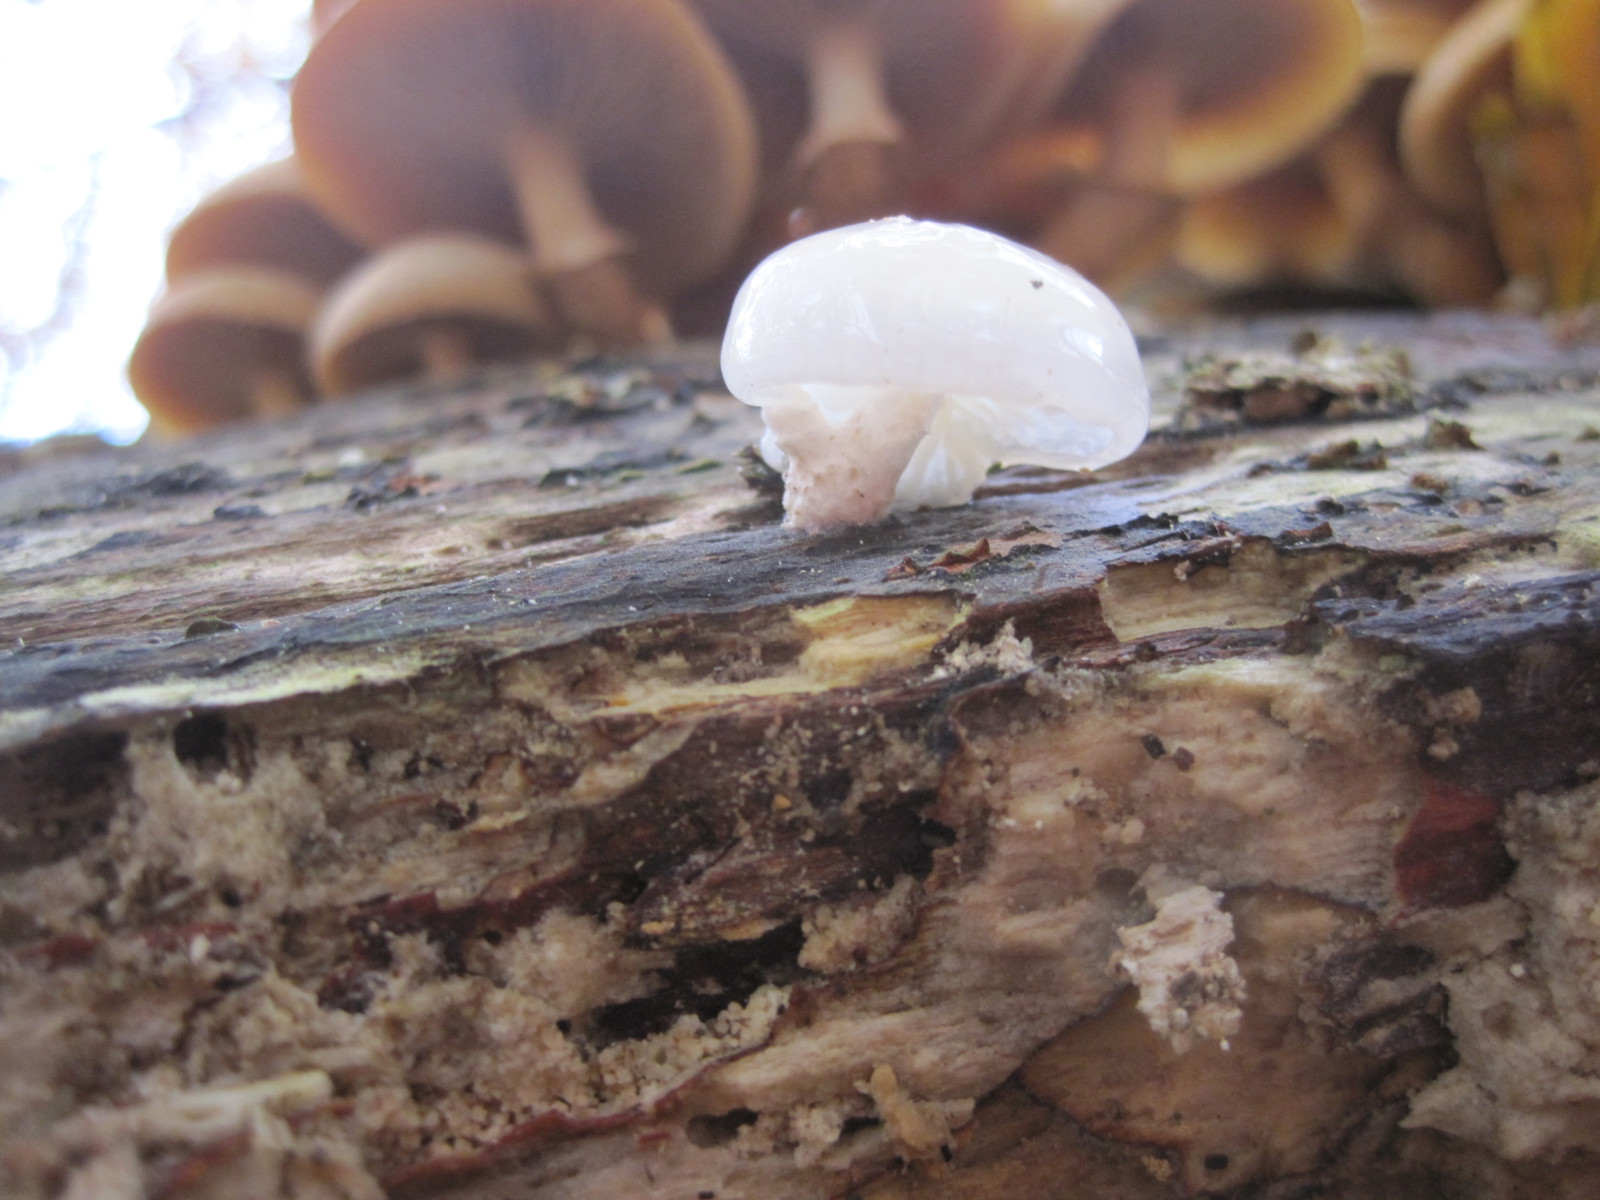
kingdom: Fungi
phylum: Basidiomycota
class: Agaricomycetes
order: Agaricales
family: Physalacriaceae
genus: Mucidula
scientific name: Mucidula mucida
